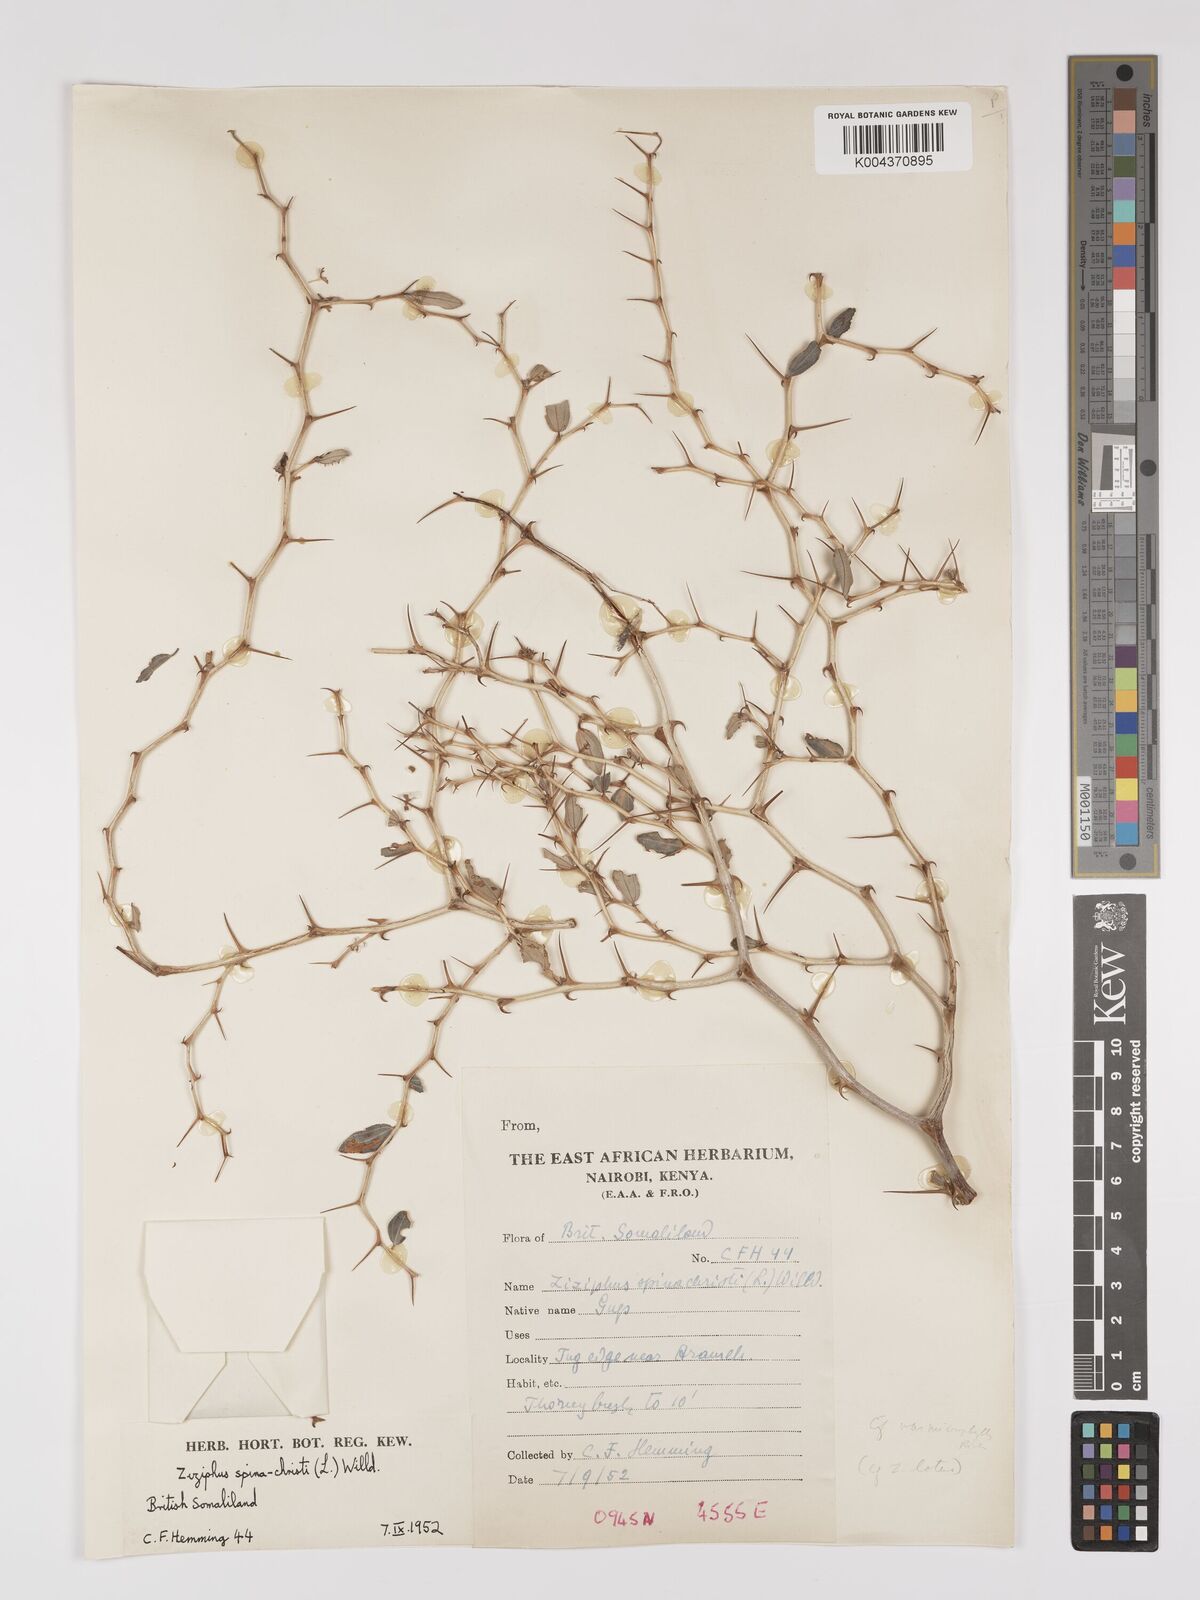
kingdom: Plantae
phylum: Tracheophyta
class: Magnoliopsida
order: Rosales
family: Rhamnaceae
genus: Ziziphus
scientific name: Ziziphus spina-christi
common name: Syrian christ-thorn
